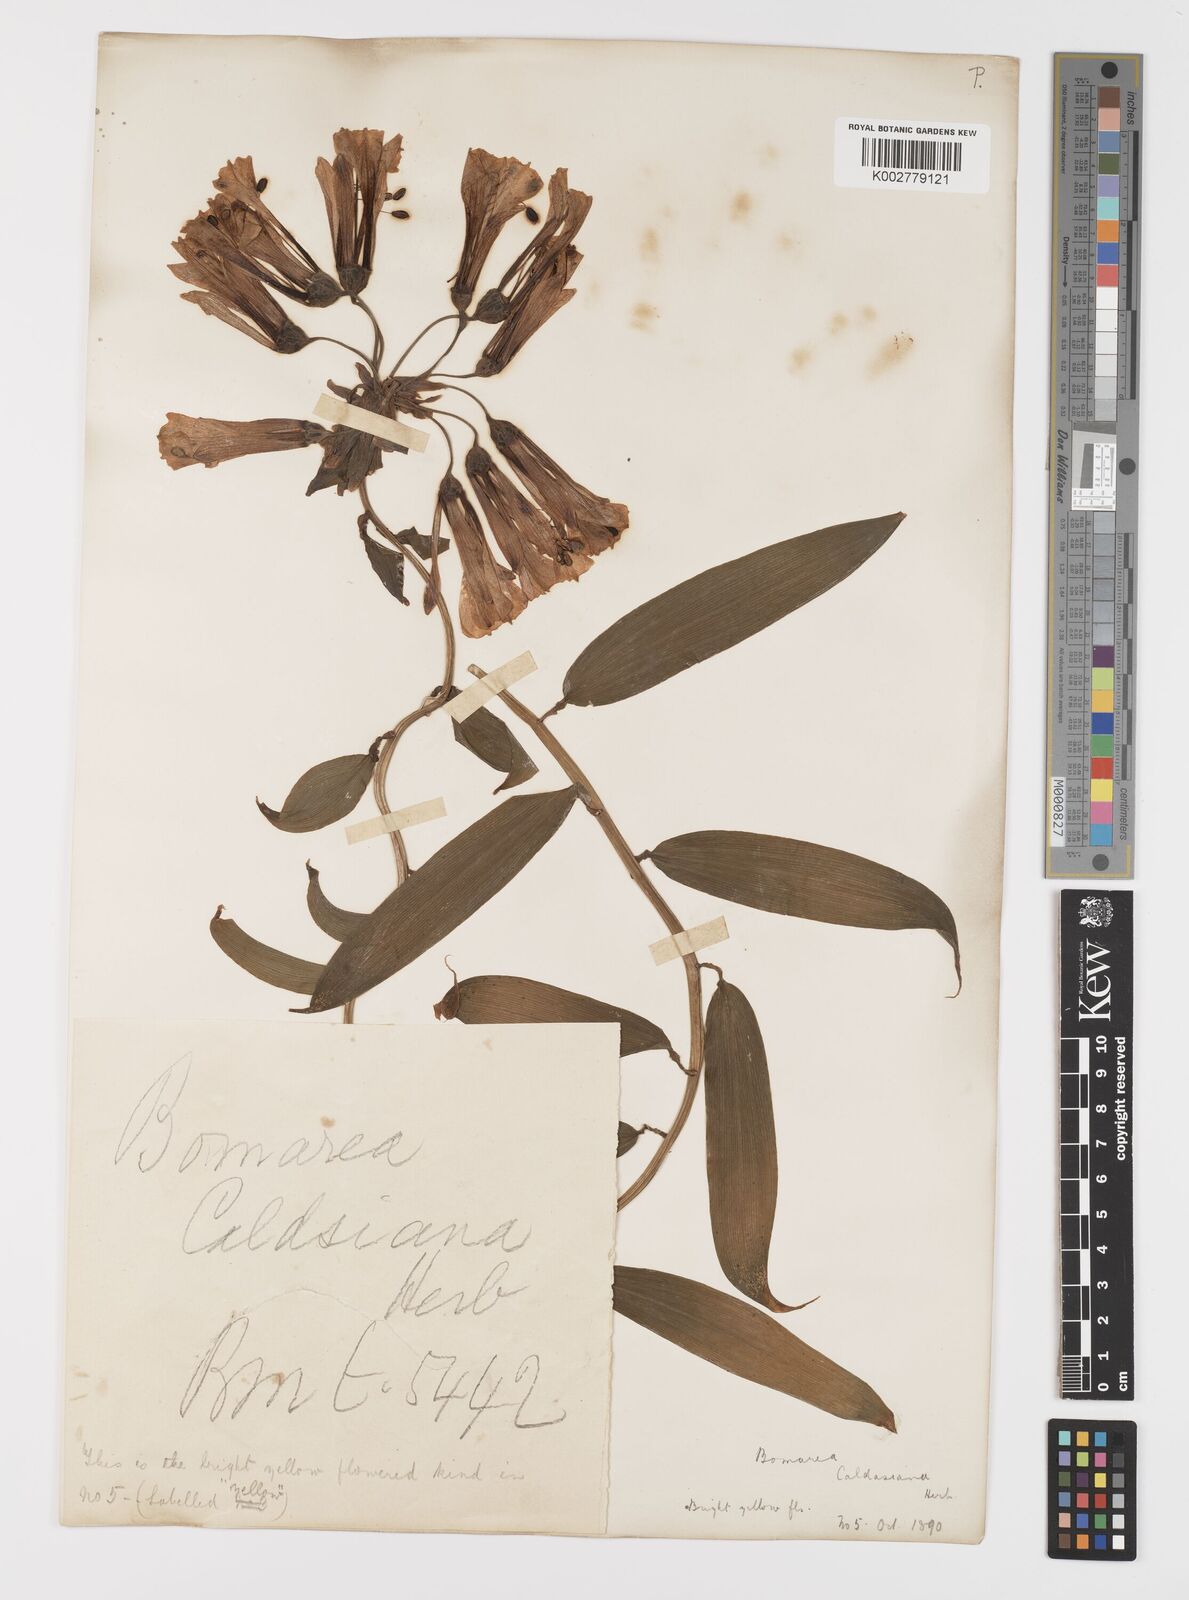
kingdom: Plantae
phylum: Tracheophyta
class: Liliopsida
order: Liliales
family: Alstroemeriaceae
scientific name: Alstroemeriaceae
